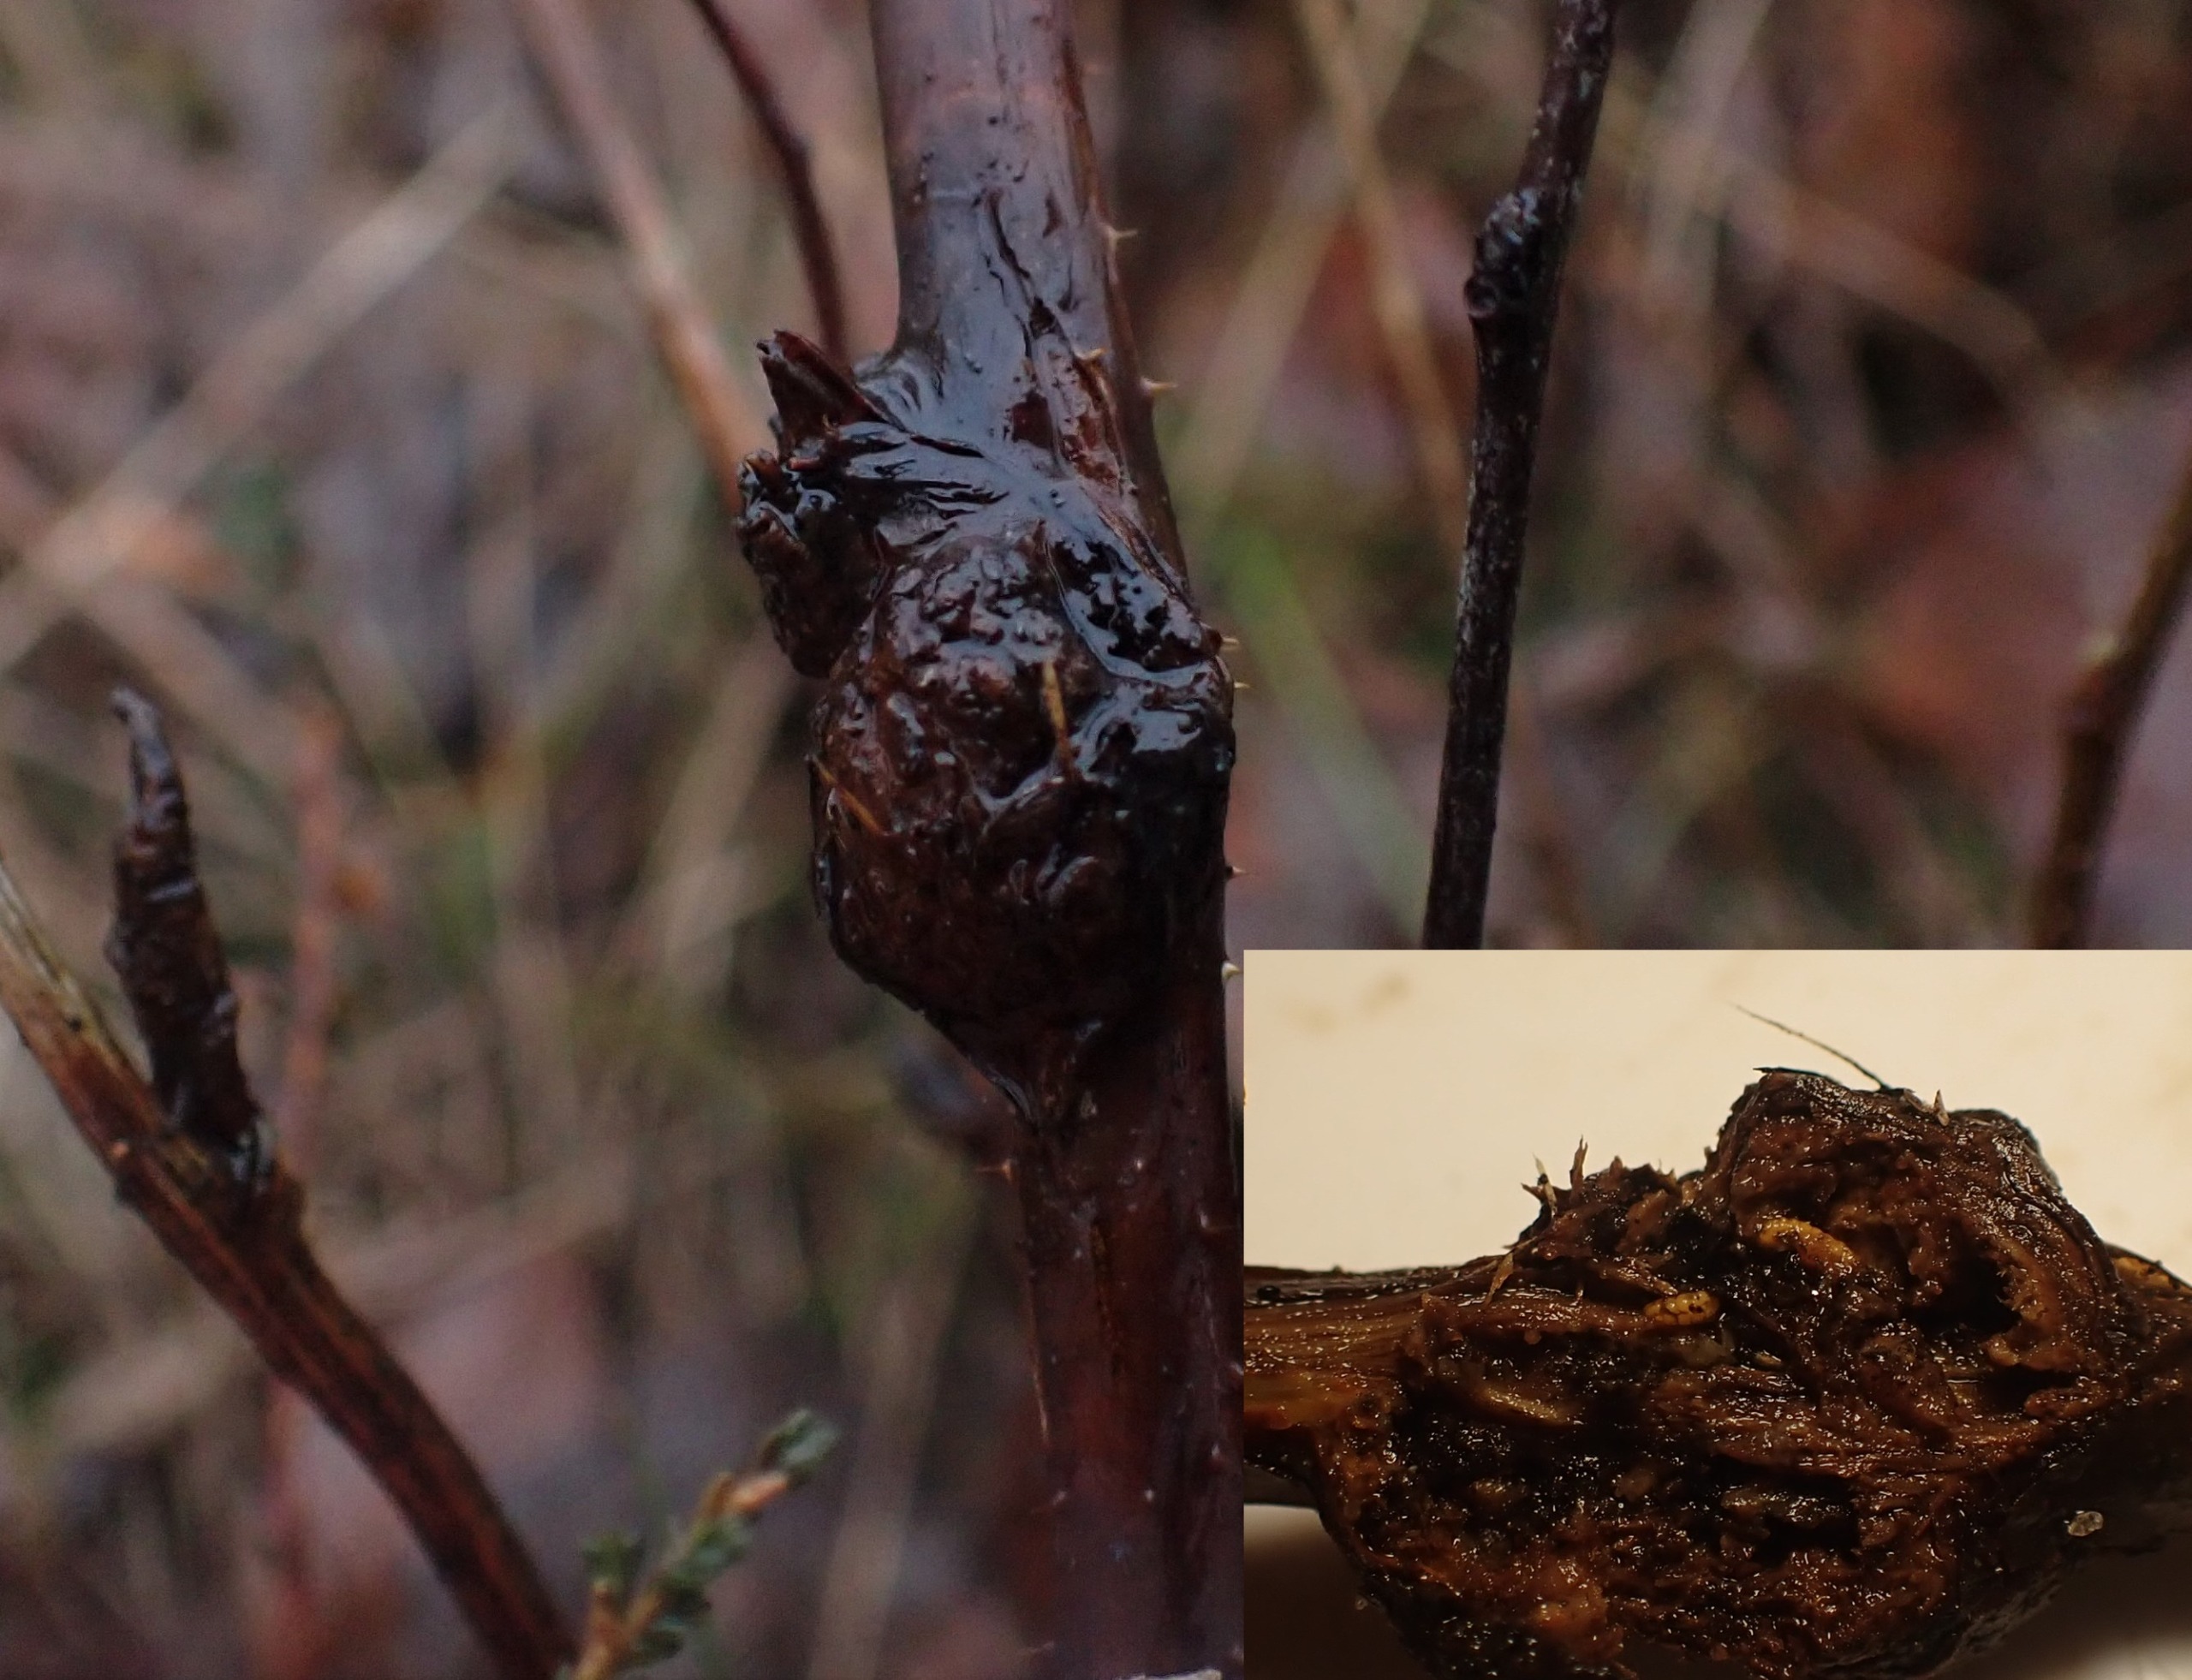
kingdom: Animalia
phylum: Arthropoda
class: Insecta
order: Diptera
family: Cecidomyiidae
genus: Lasioptera
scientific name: Lasioptera rubi
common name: Hindbærstængelgalmyg
